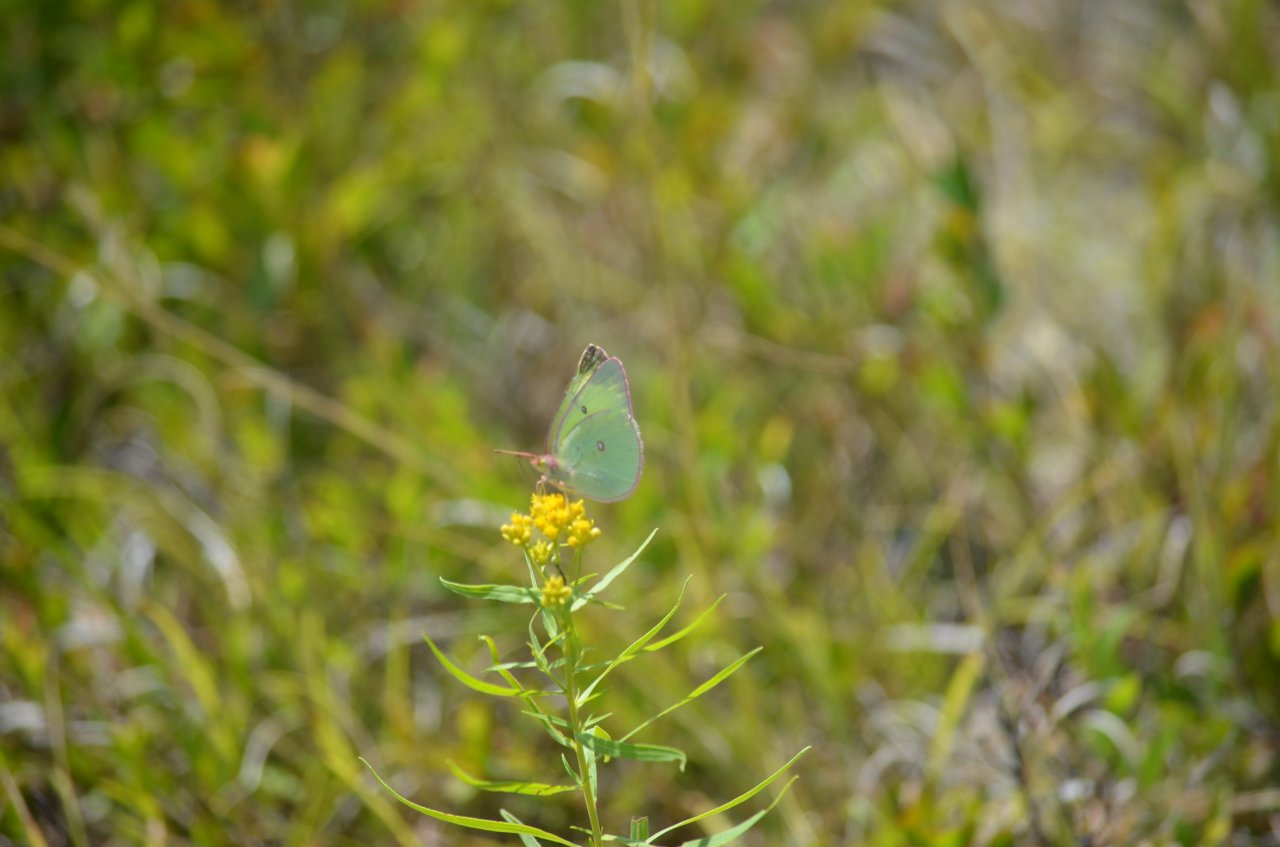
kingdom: Animalia
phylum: Arthropoda
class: Insecta
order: Lepidoptera
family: Pieridae
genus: Colias
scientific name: Colias interior
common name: Pink-edged Sulphur
